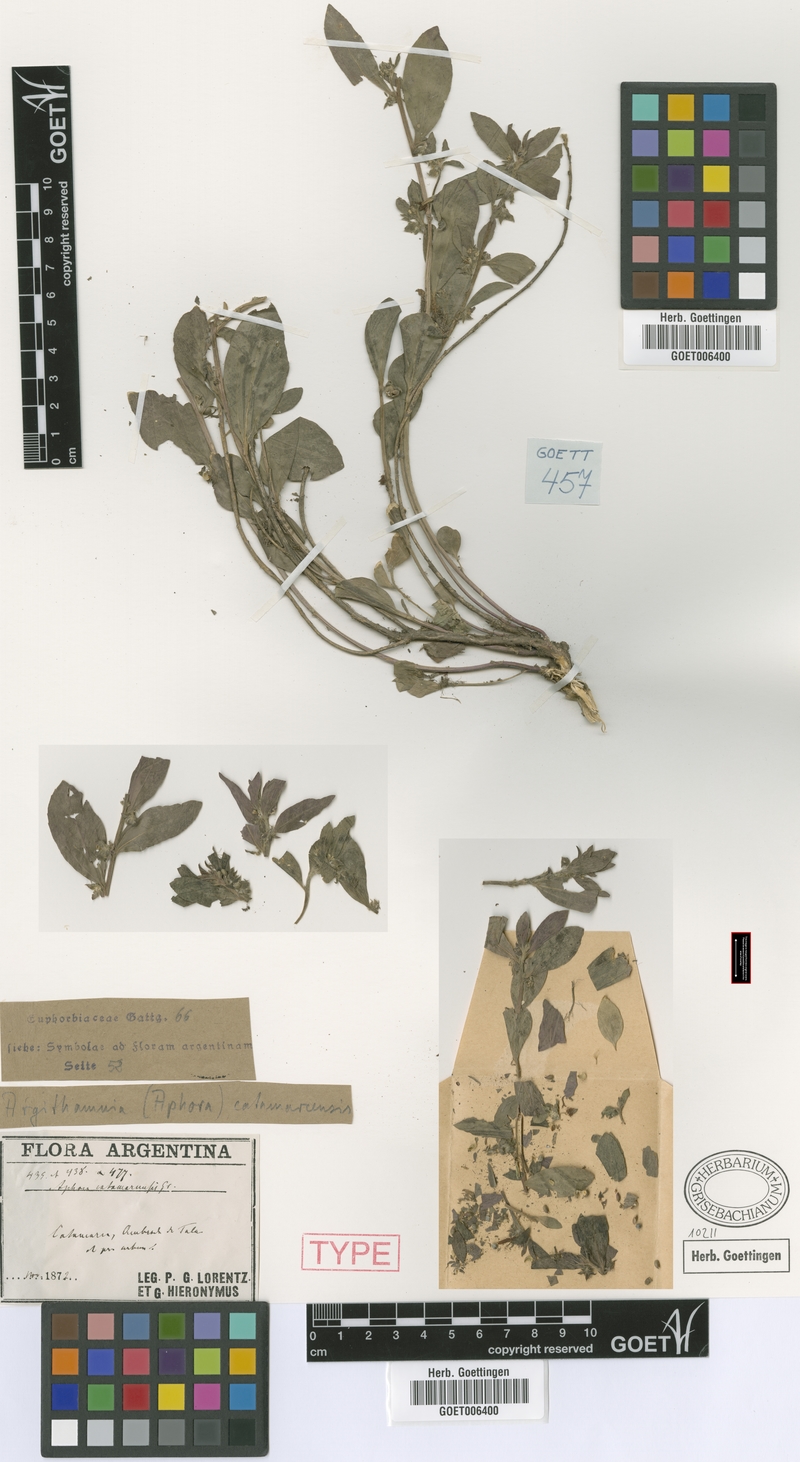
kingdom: Plantae
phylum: Tracheophyta
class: Magnoliopsida
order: Malpighiales
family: Euphorbiaceae
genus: Ditaxis
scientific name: Ditaxis catamarcensis
